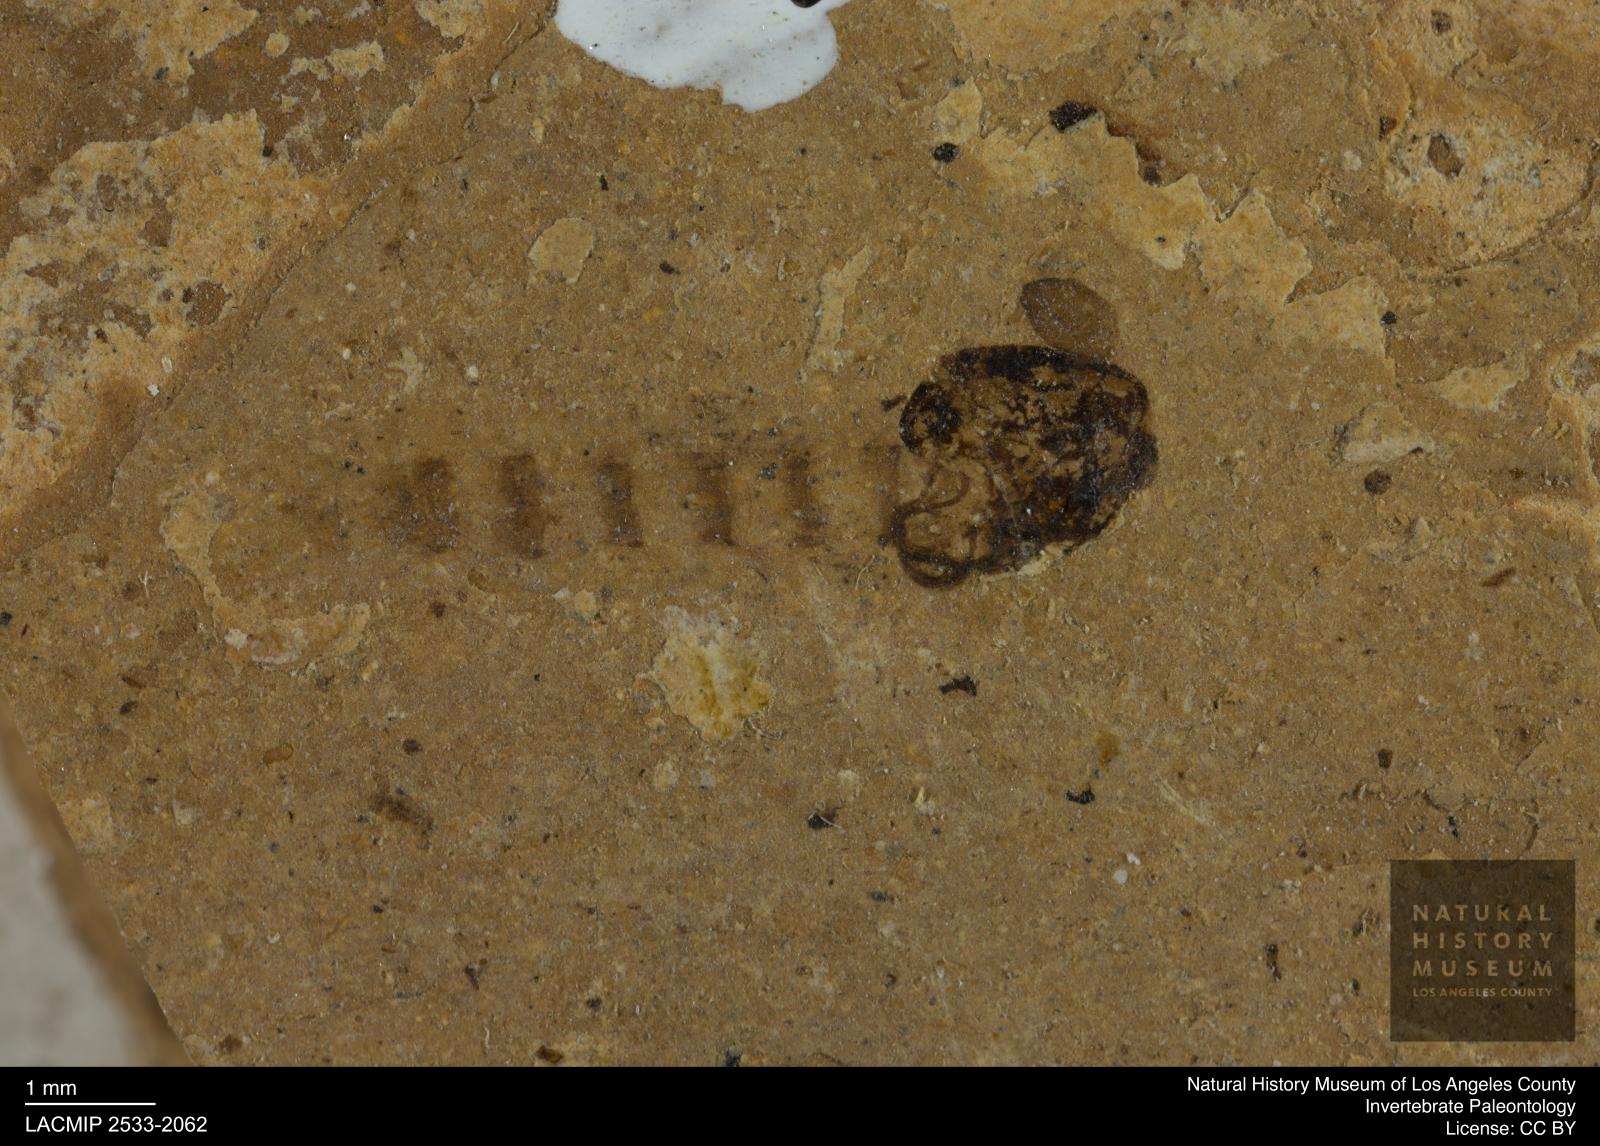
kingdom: Animalia
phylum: Arthropoda
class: Insecta
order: Diptera
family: Chironomidae
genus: Pelopiina
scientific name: Pelopiina
